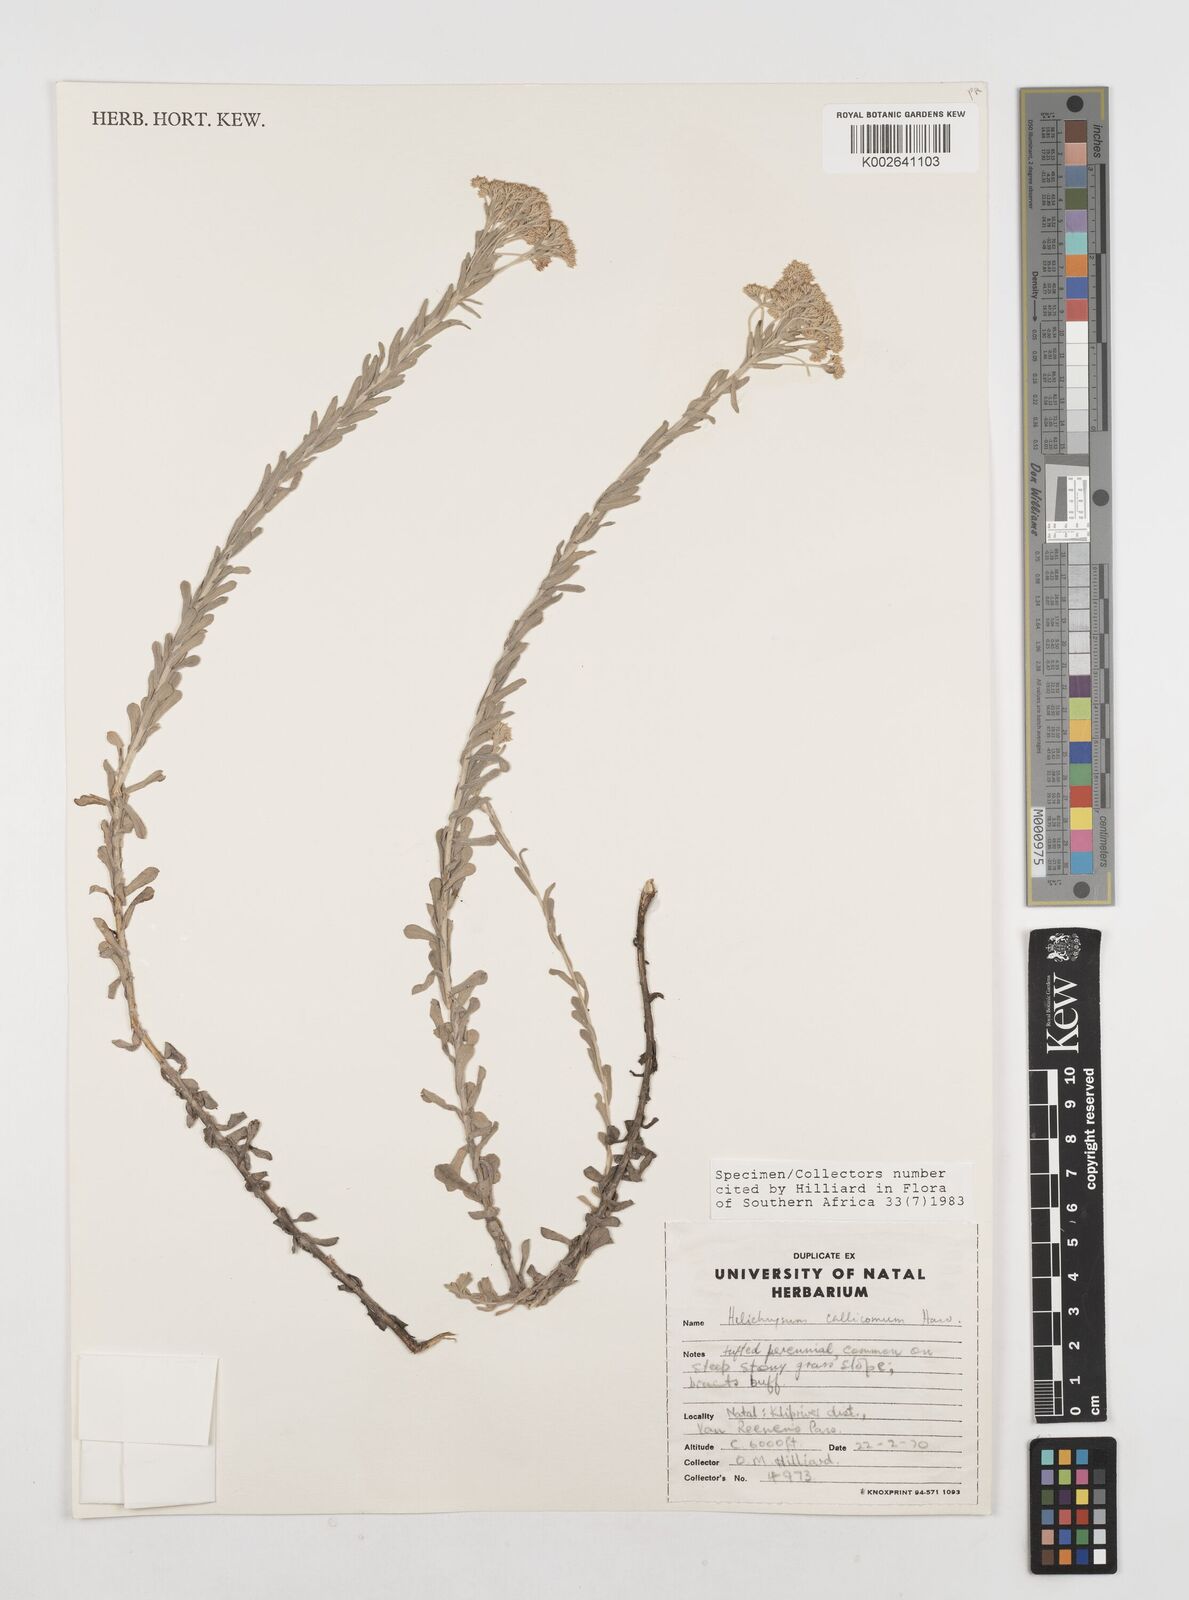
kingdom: Plantae
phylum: Tracheophyta
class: Magnoliopsida
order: Asterales
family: Asteraceae
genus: Helichrysum
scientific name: Helichrysum callicomum
